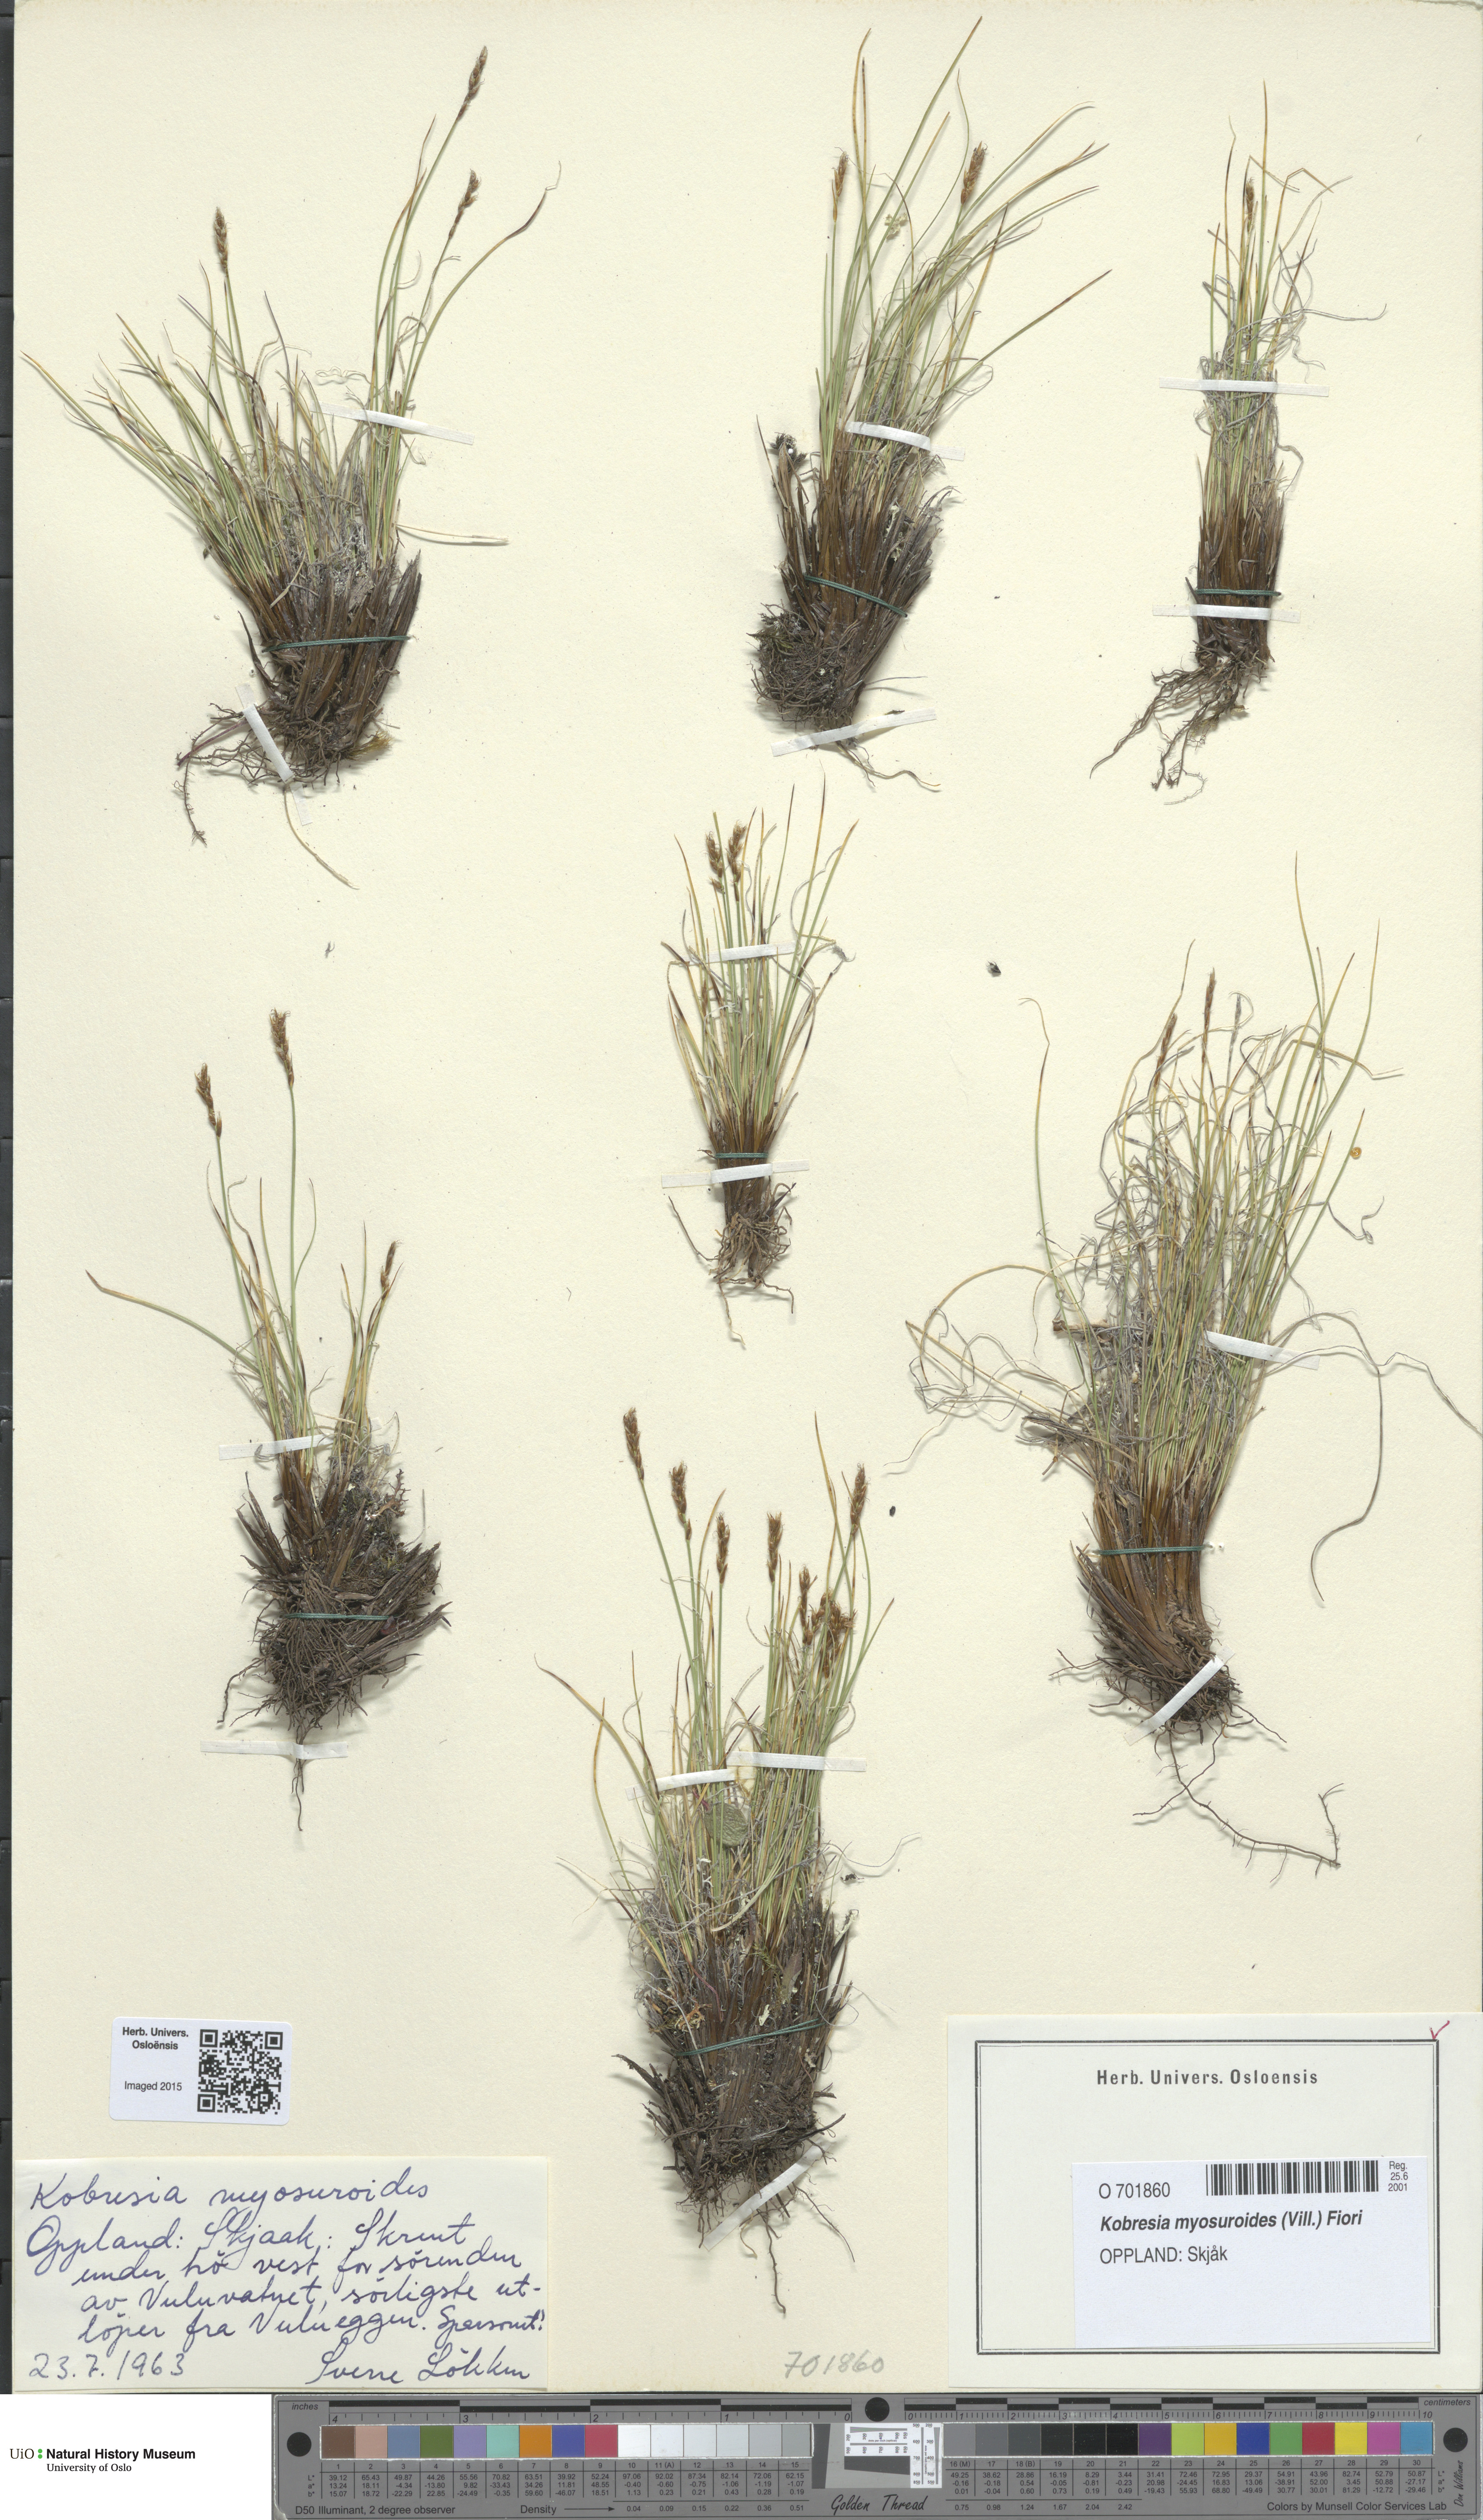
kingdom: Plantae
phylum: Tracheophyta
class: Liliopsida
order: Poales
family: Cyperaceae
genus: Carex
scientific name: Carex myosuroides
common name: Bellard's bog sedge
